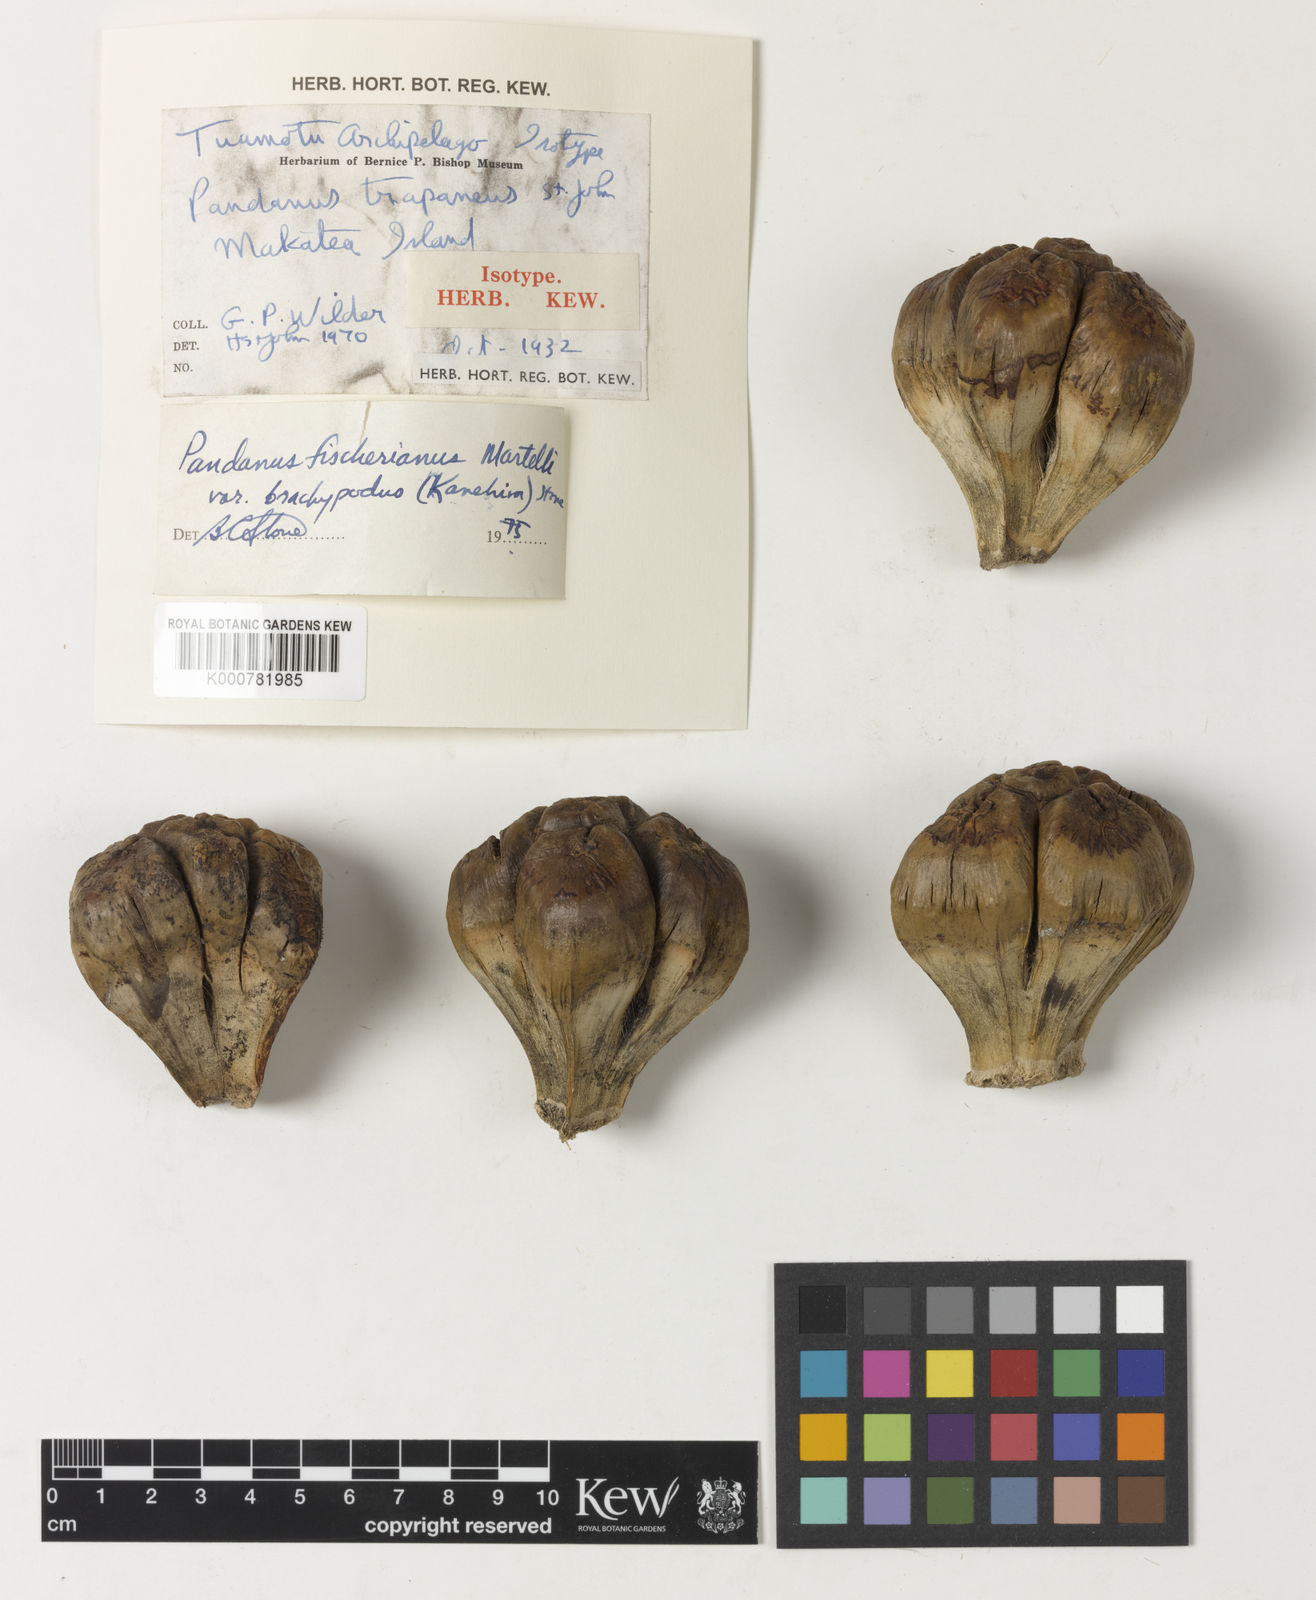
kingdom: Plantae
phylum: Tracheophyta
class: Liliopsida
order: Pandanales
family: Pandanaceae
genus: Pandanus
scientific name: Pandanus tectorius
